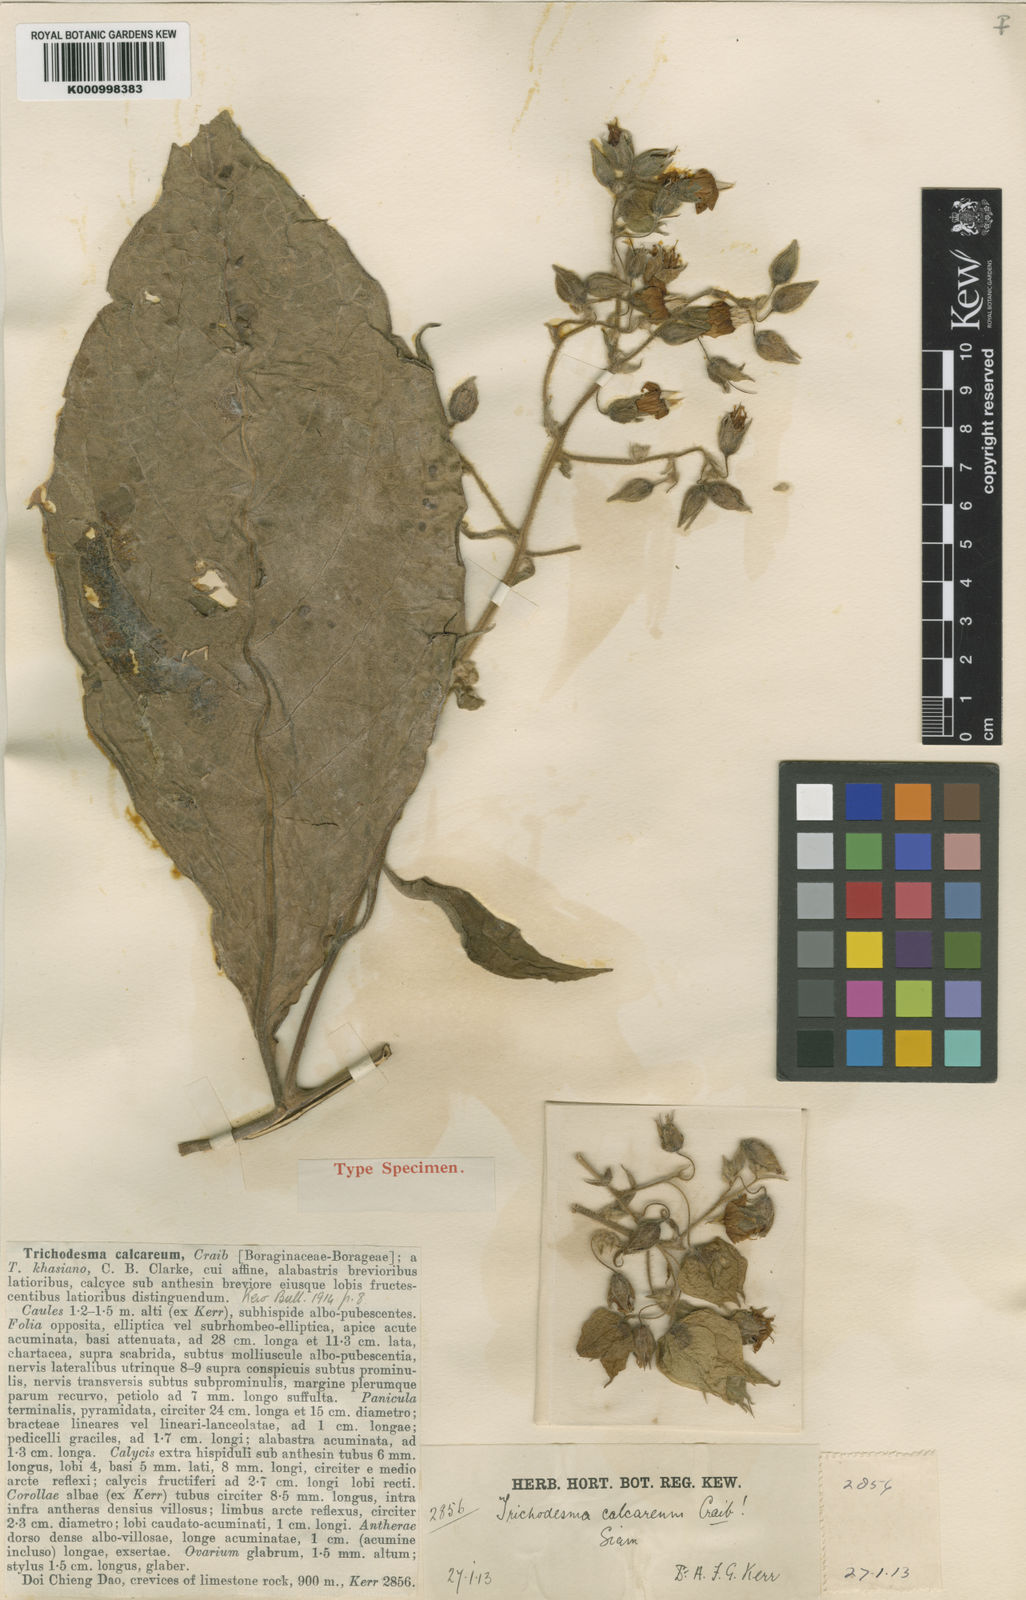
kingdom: Plantae
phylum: Tracheophyta
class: Magnoliopsida
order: Boraginales
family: Boraginaceae
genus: Trichodesma
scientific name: Trichodesma khasianum
